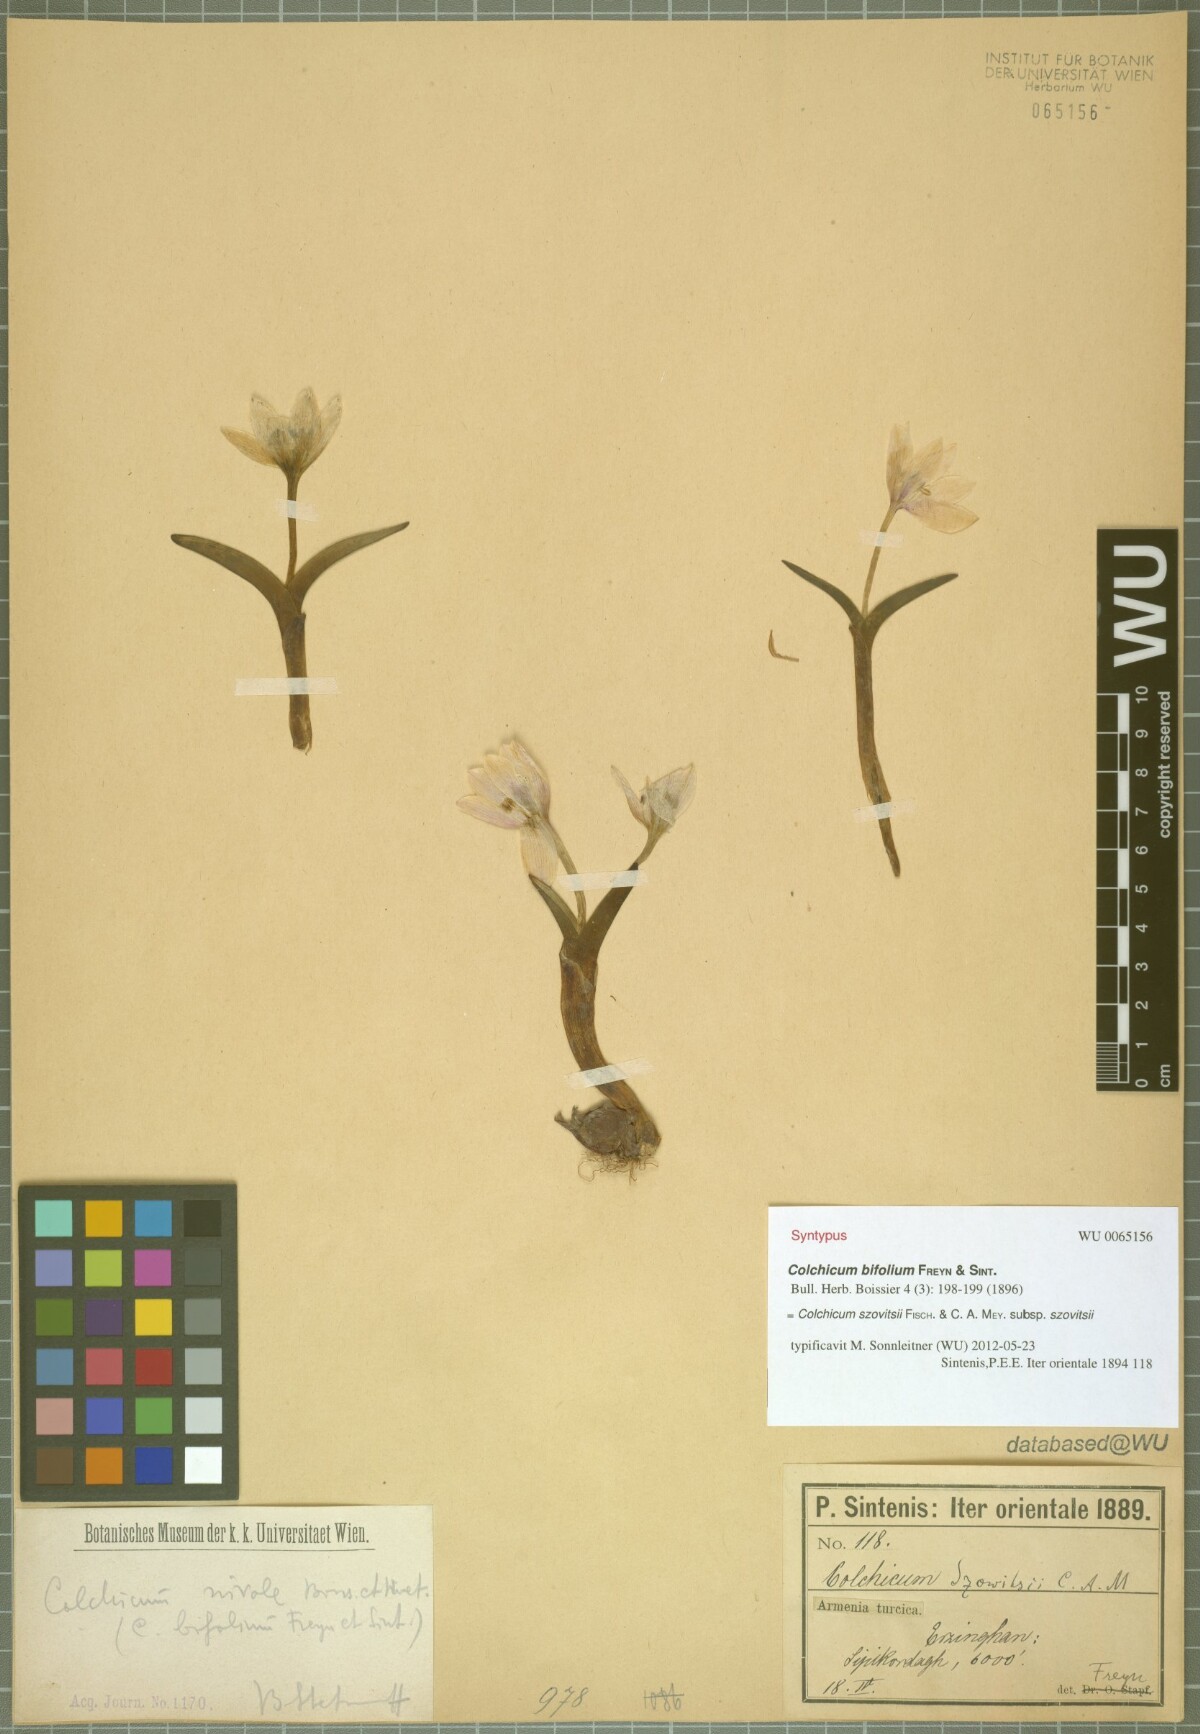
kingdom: Plantae
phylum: Tracheophyta
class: Liliopsida
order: Liliales
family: Colchicaceae
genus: Colchicum
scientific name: Colchicum szovitsii
